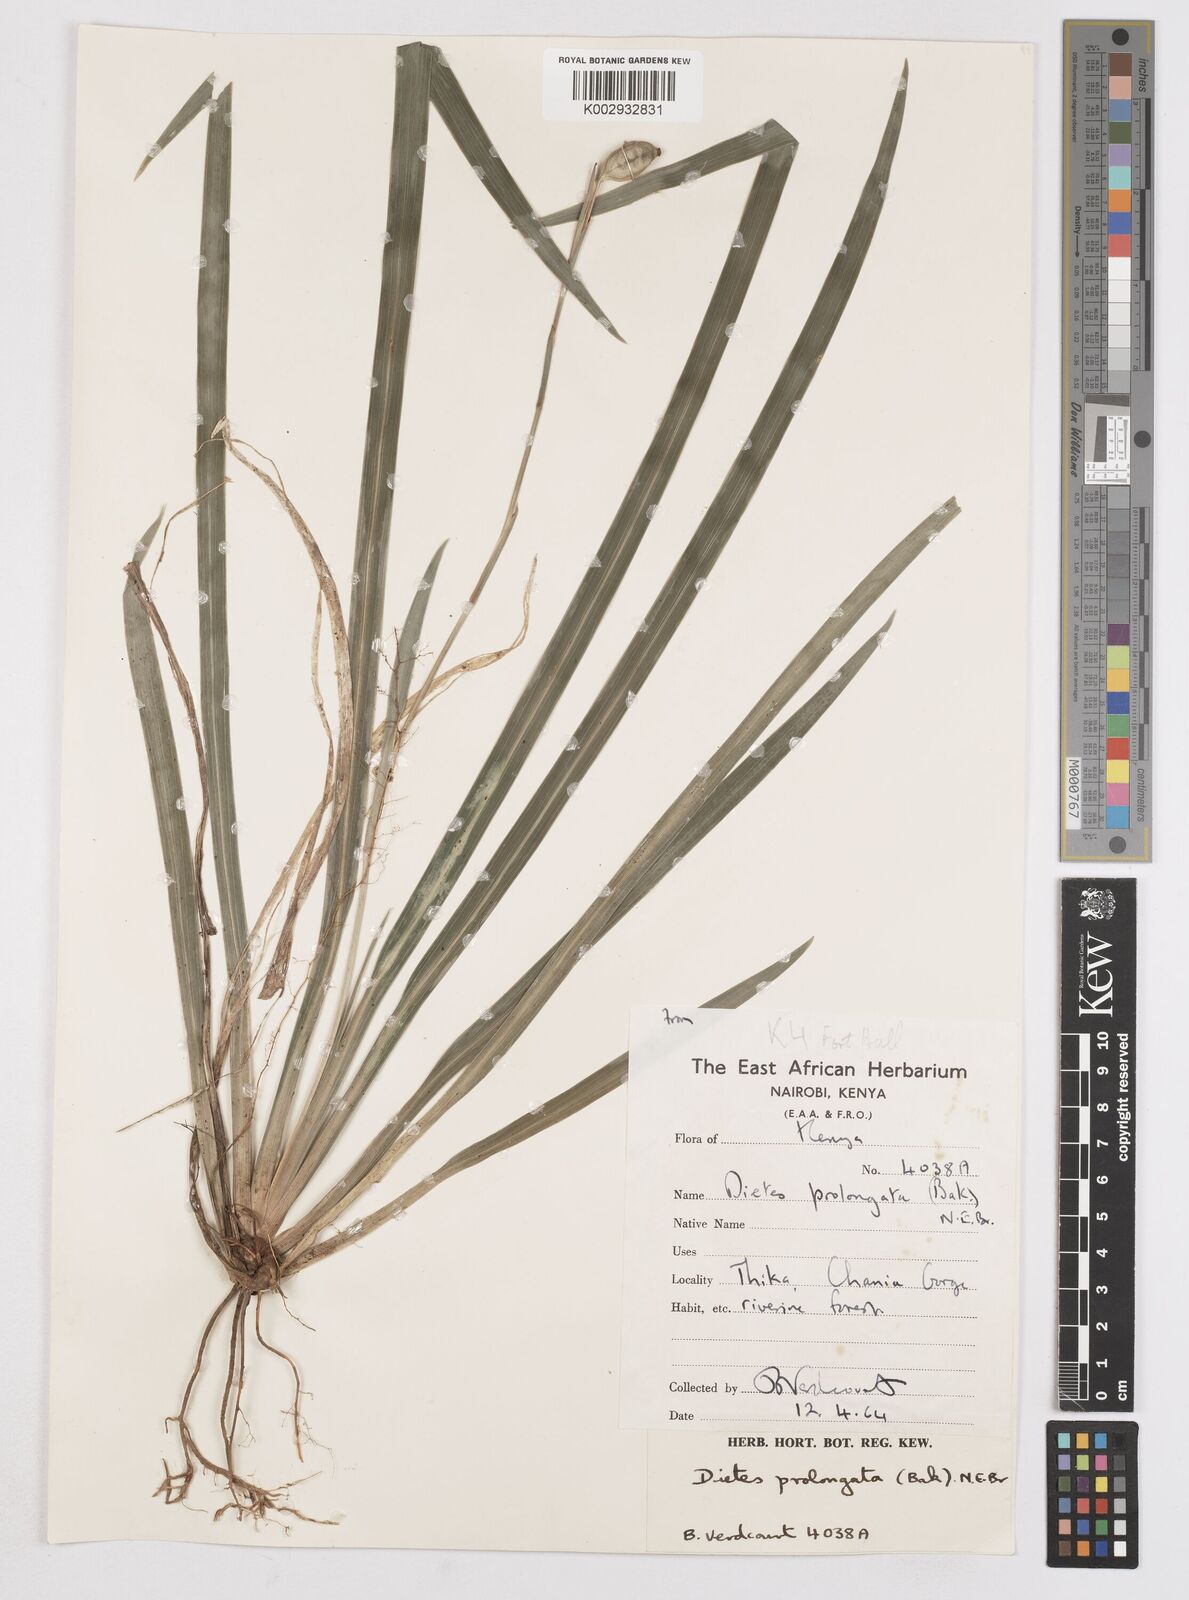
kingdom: Plantae
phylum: Tracheophyta
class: Liliopsida
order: Asparagales
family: Iridaceae
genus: Dietes
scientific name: Dietes iridioides
